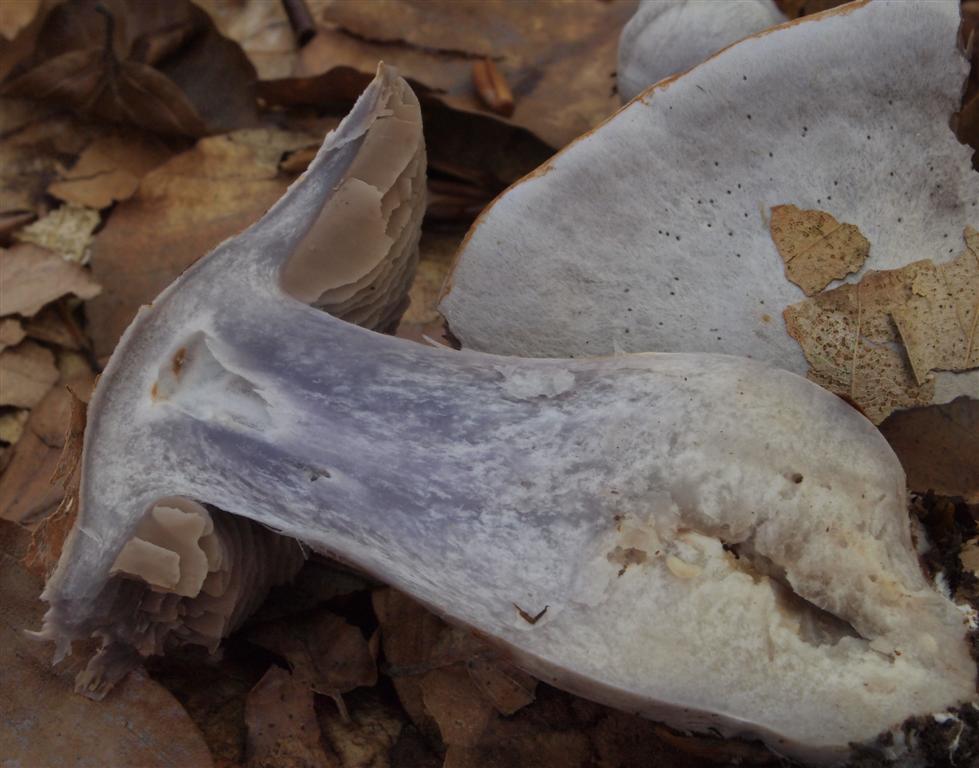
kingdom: Fungi
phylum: Basidiomycota
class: Agaricomycetes
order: Agaricales
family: Cortinariaceae
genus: Cortinarius
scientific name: Cortinarius alboviolaceus
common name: lysviolet slørhat
